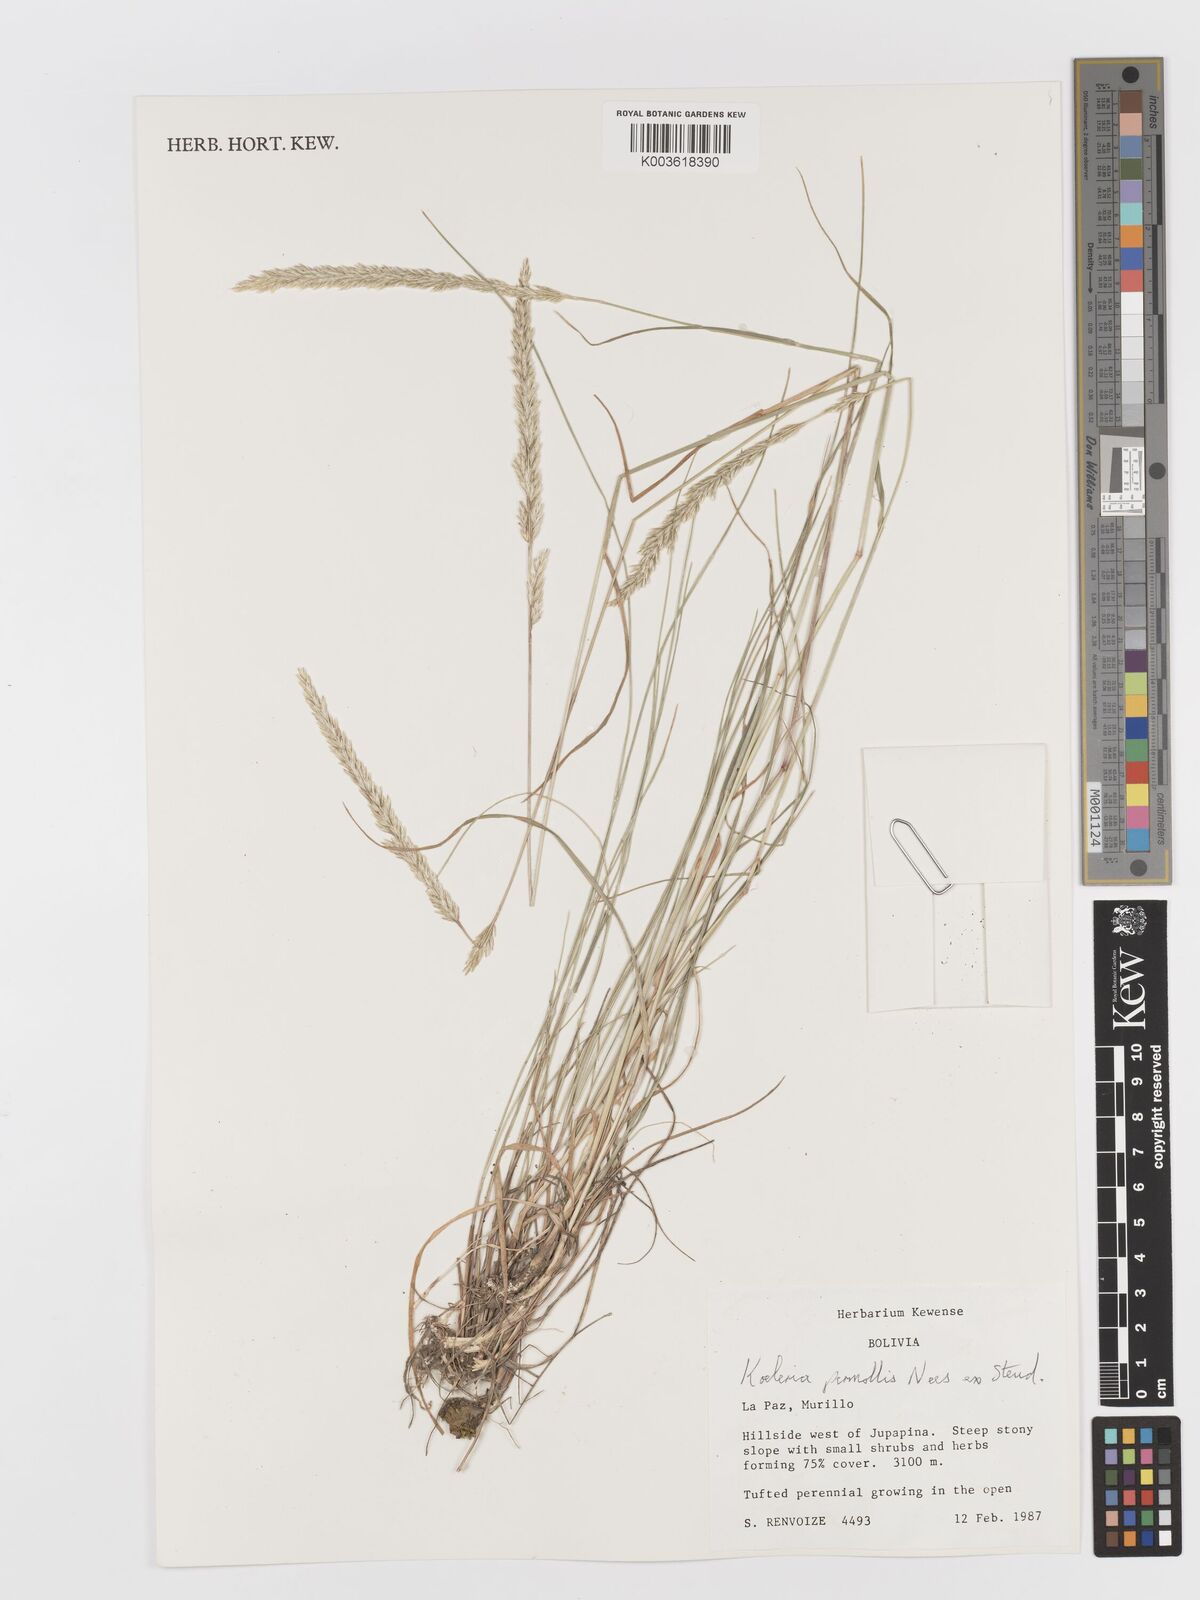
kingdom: Plantae
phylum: Tracheophyta
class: Liliopsida
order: Poales
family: Poaceae
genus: Koeleria
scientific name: Koeleria permollis
